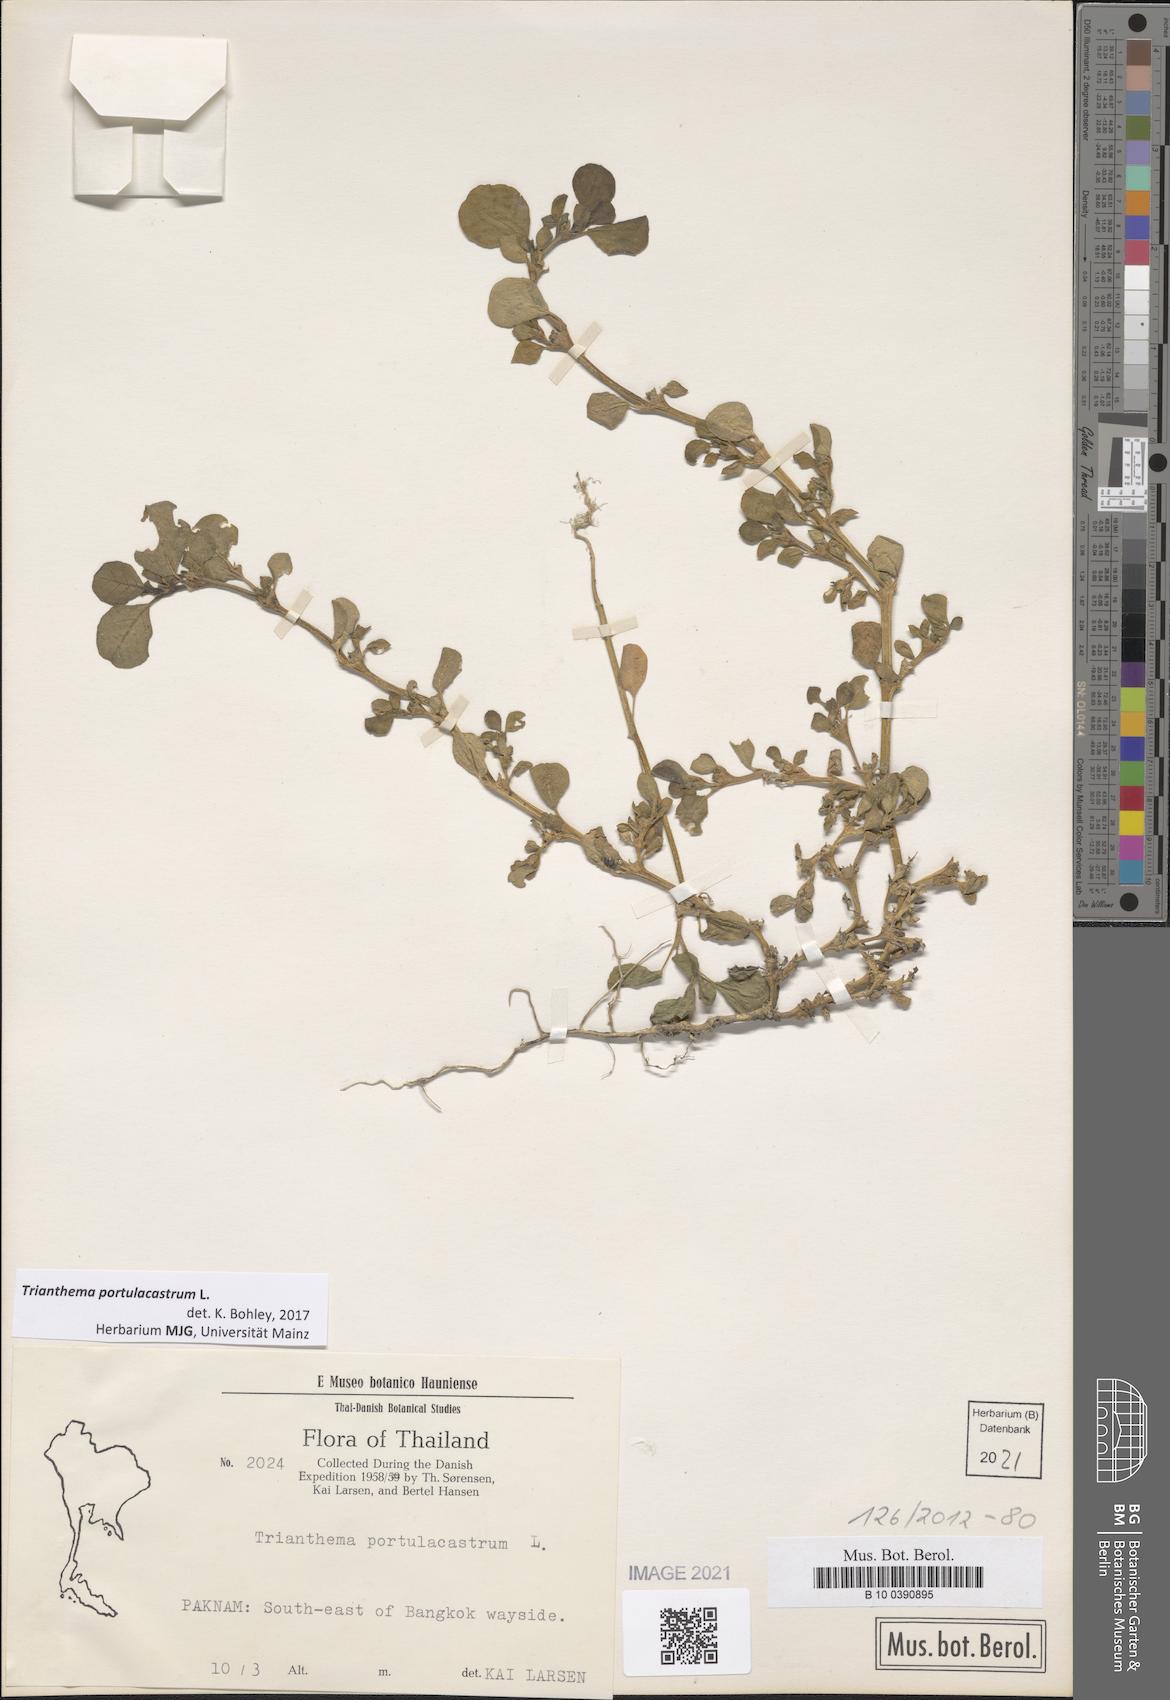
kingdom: Plantae
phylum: Tracheophyta
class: Magnoliopsida
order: Caryophyllales
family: Aizoaceae
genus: Trianthema
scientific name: Trianthema portulacastrum
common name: Desert horsepurslane
